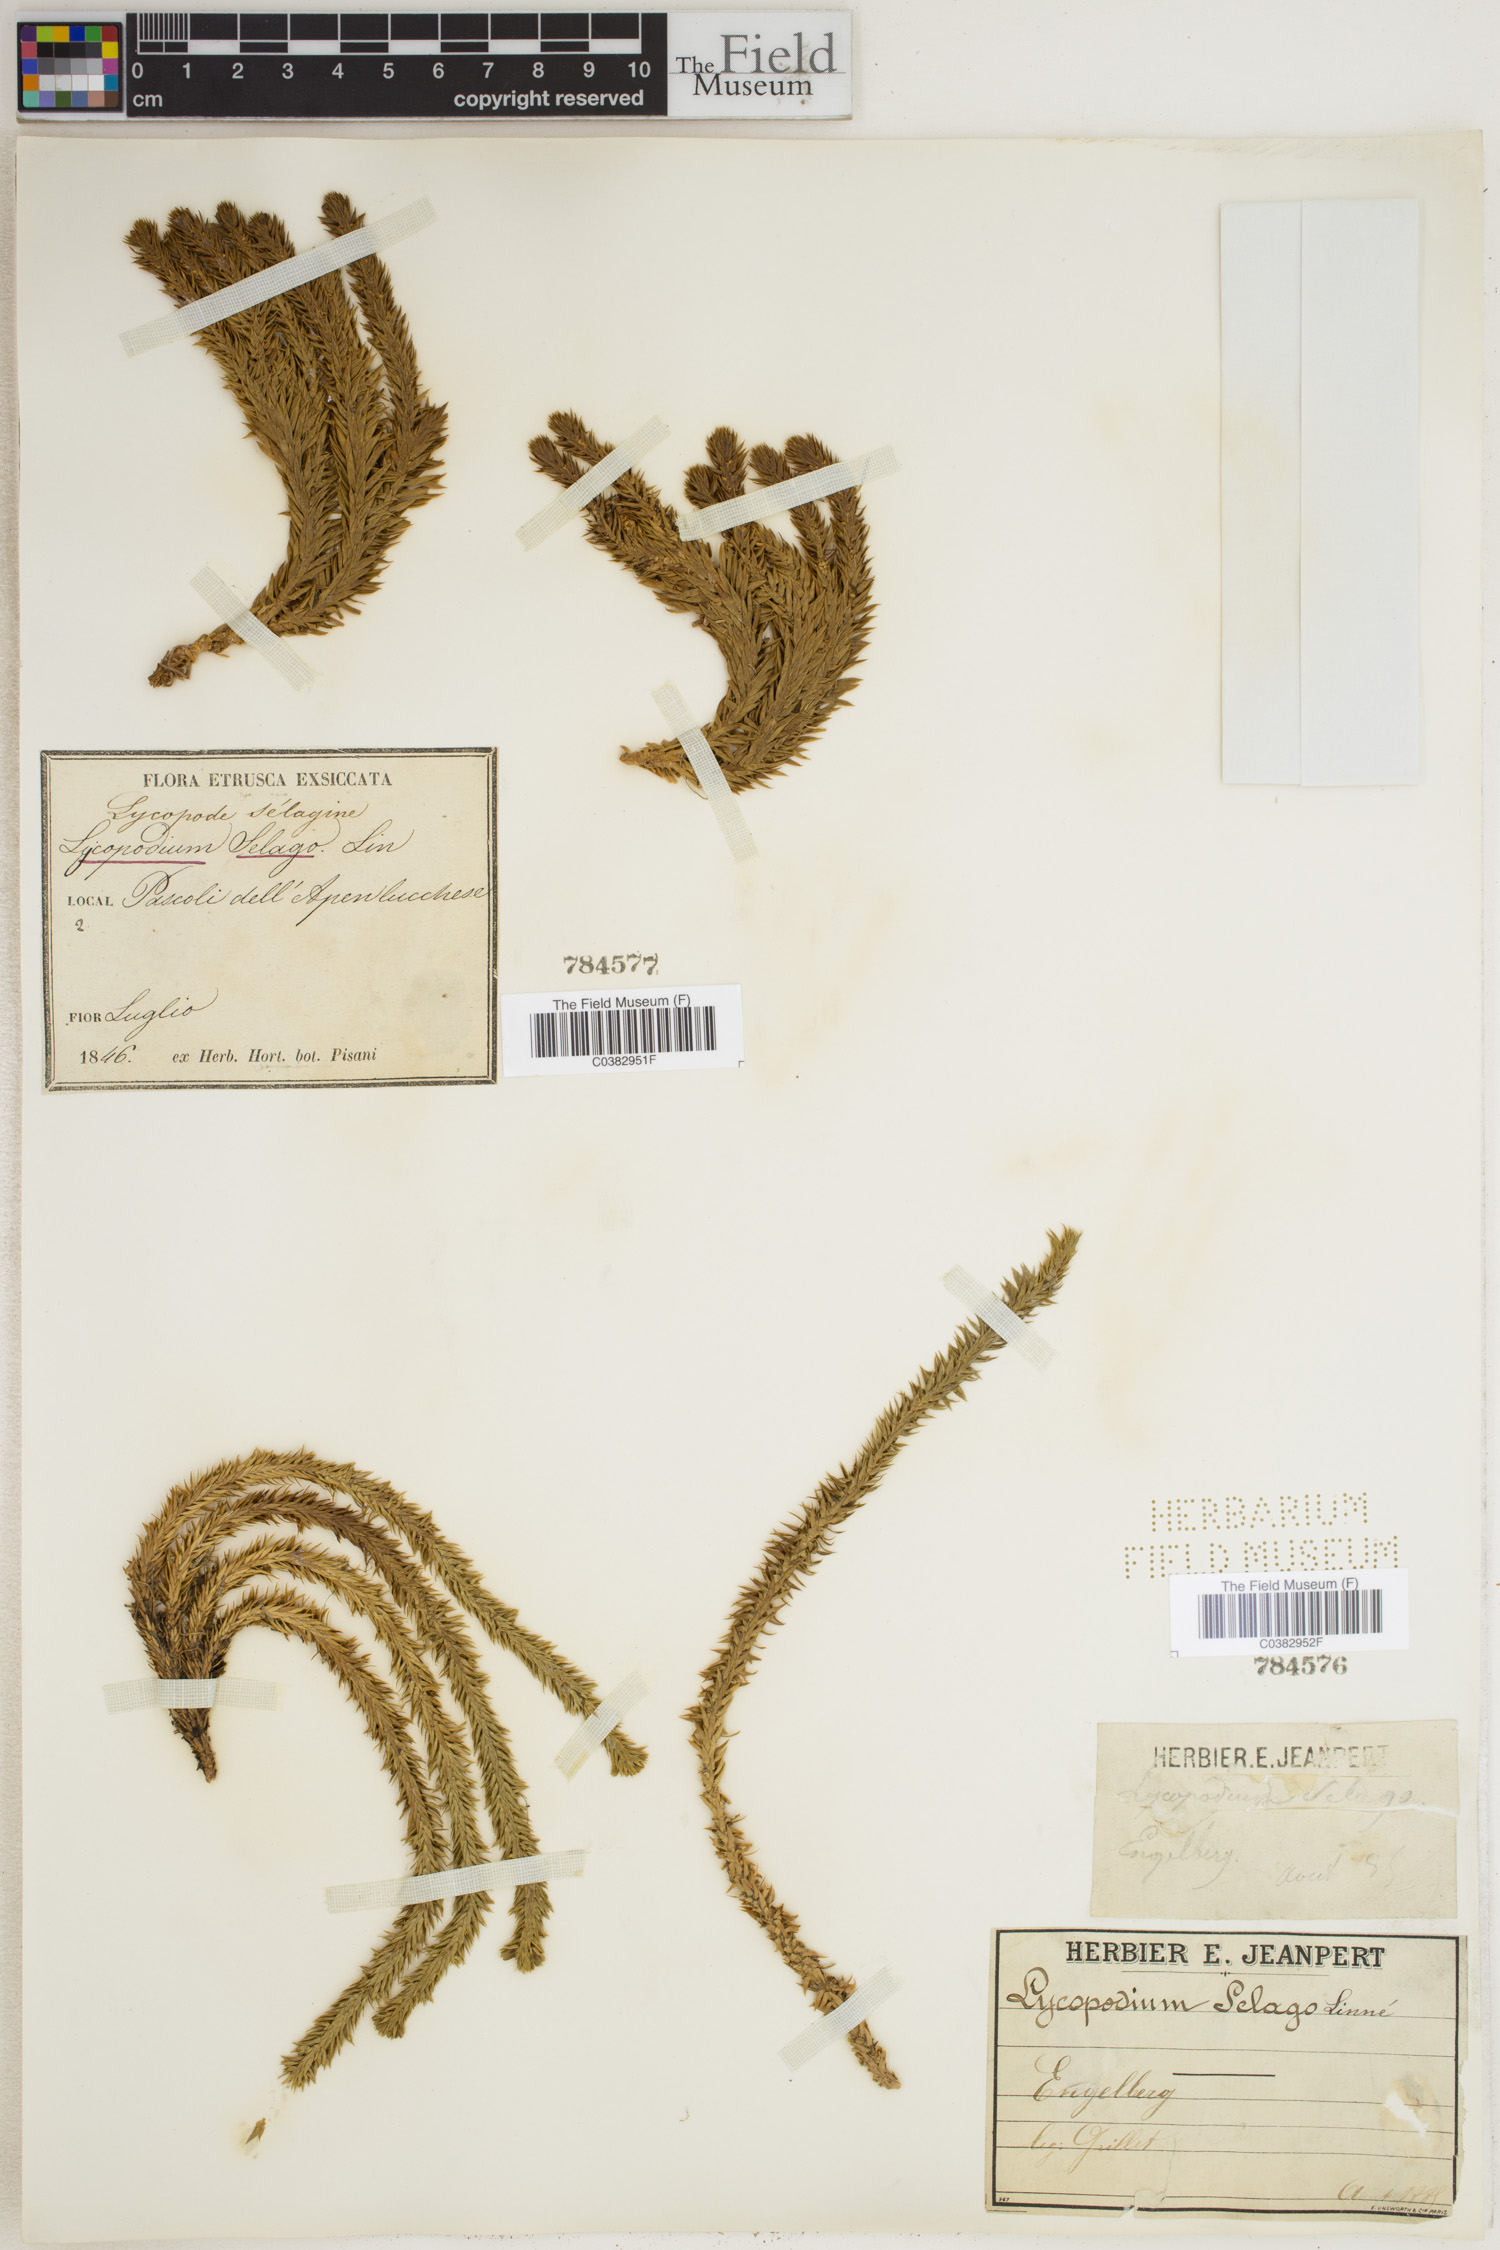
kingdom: Plantae
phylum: Tracheophyta
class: Lycopodiopsida
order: Lycopodiales
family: Lycopodiaceae
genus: Huperzia
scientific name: Huperzia selago
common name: Northern firmoss
